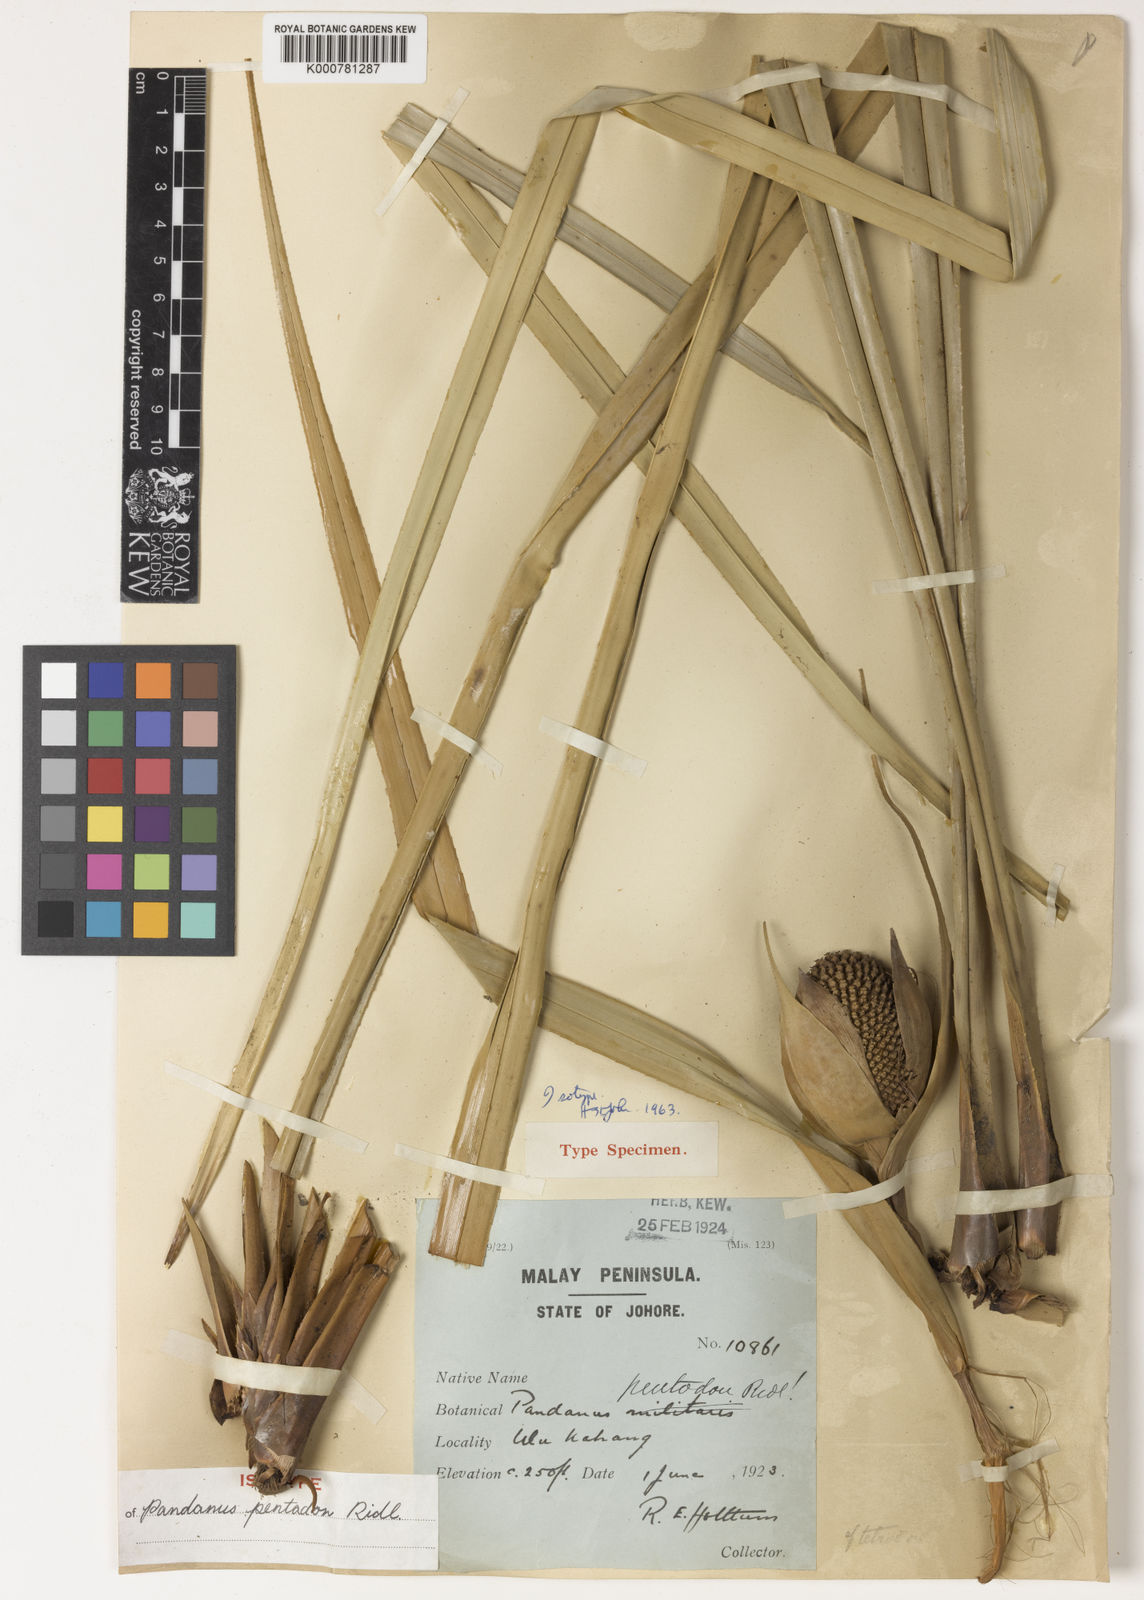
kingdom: Plantae
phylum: Tracheophyta
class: Liliopsida
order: Pandanales
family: Pandanaceae
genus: Pandanus
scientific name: Pandanus pentodon
